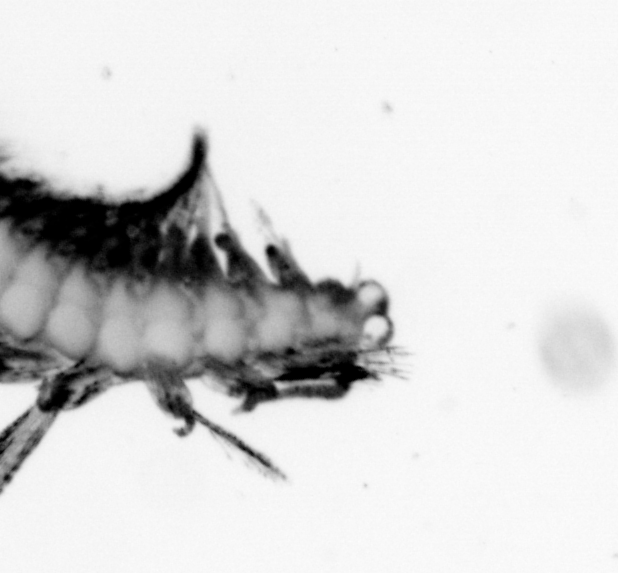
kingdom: Animalia
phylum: Annelida
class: Polychaeta
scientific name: Polychaeta
